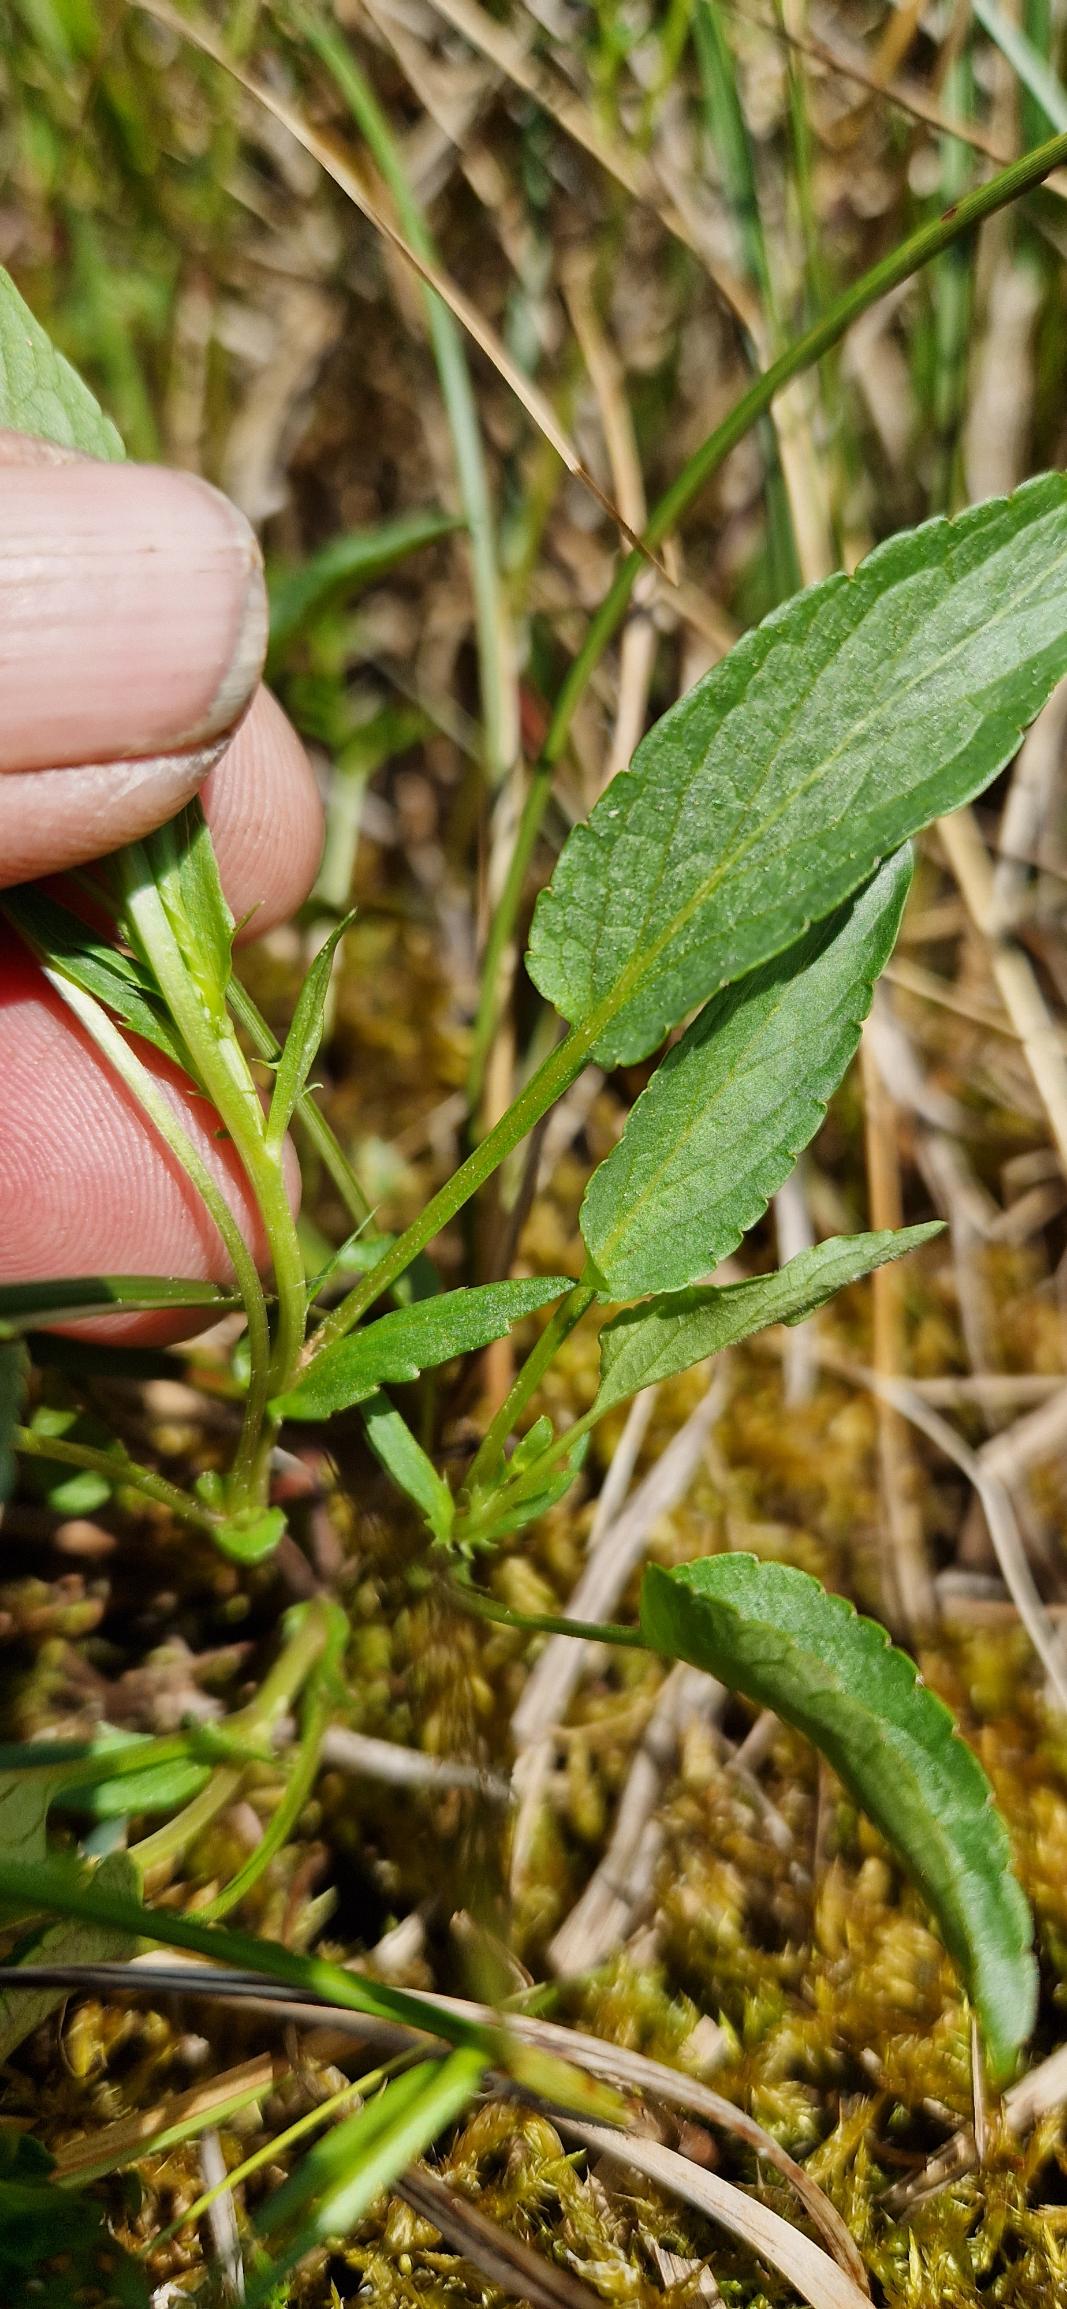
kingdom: Plantae
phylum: Tracheophyta
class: Magnoliopsida
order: Malpighiales
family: Violaceae
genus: Viola
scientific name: Viola stagnina
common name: Rank viol
